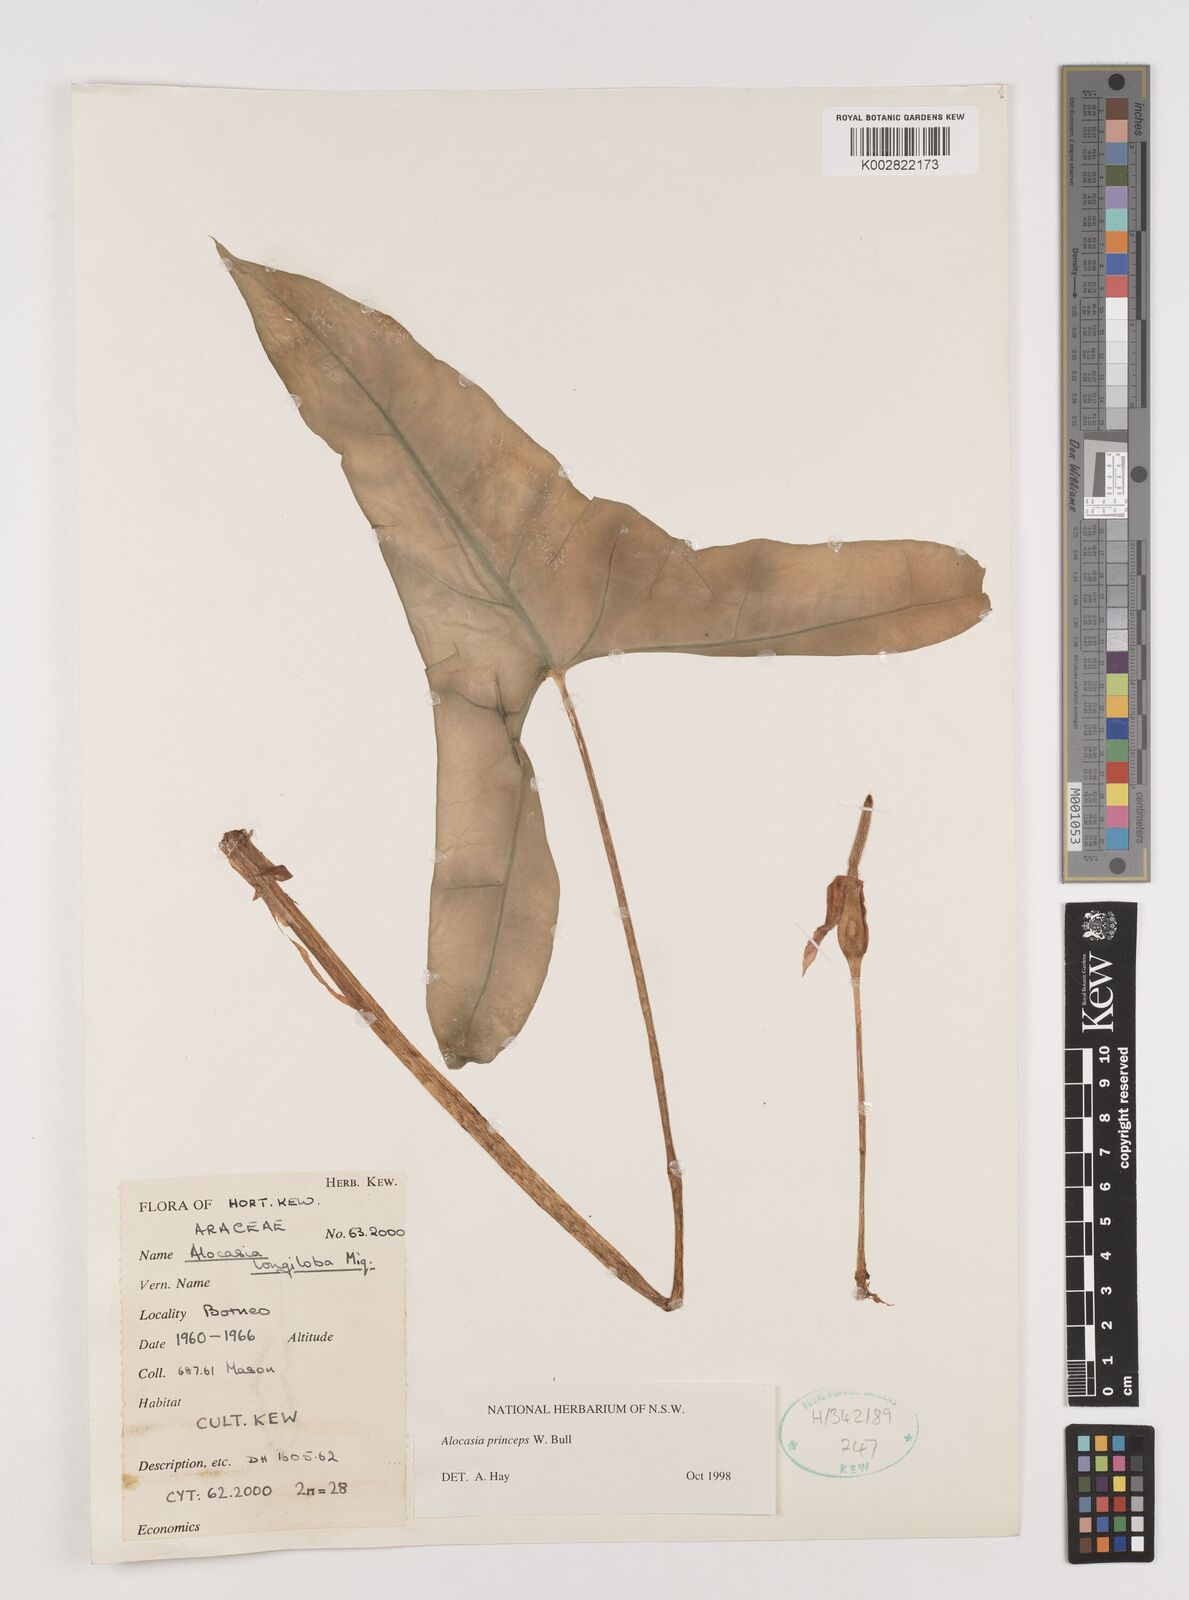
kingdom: Plantae
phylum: Tracheophyta
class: Liliopsida
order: Alismatales
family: Araceae
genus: Alocasia
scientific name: Alocasia princeps
